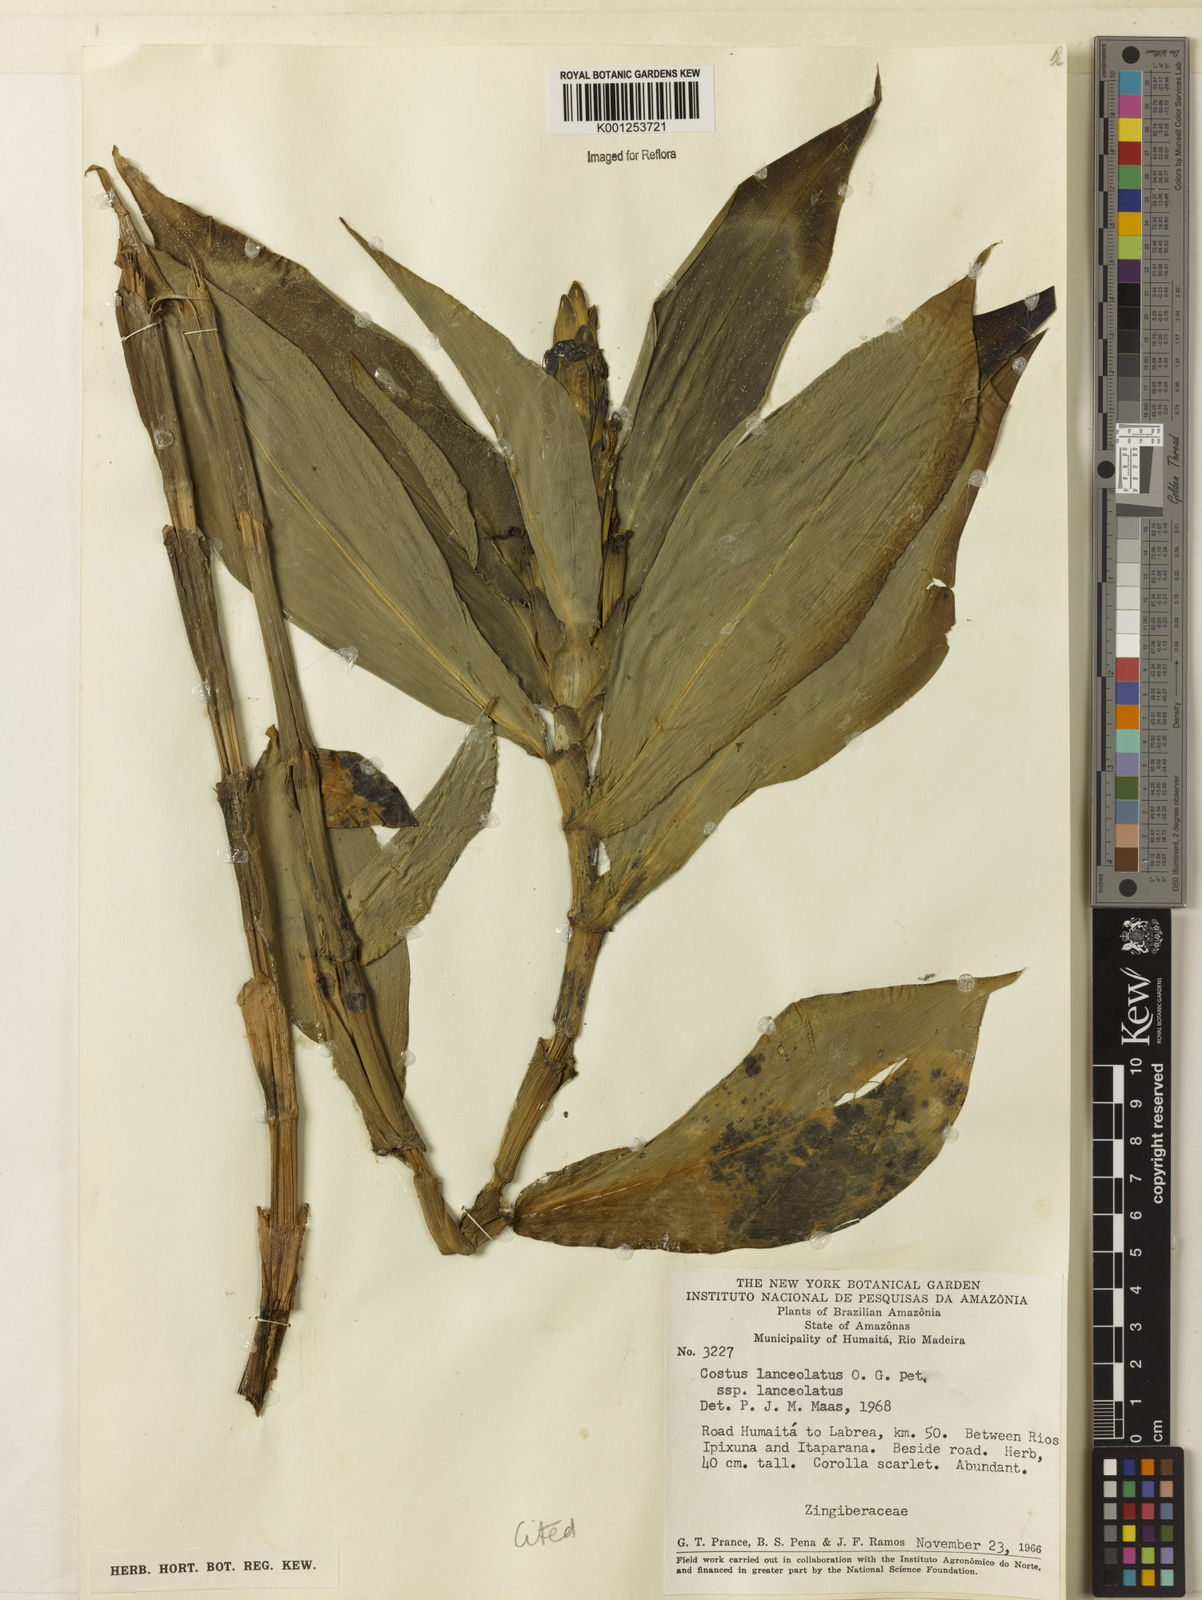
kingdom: Plantae
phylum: Tracheophyta
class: Liliopsida
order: Zingiberales
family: Costaceae
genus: Chamaecostus
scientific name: Chamaecostus lanceolatus
